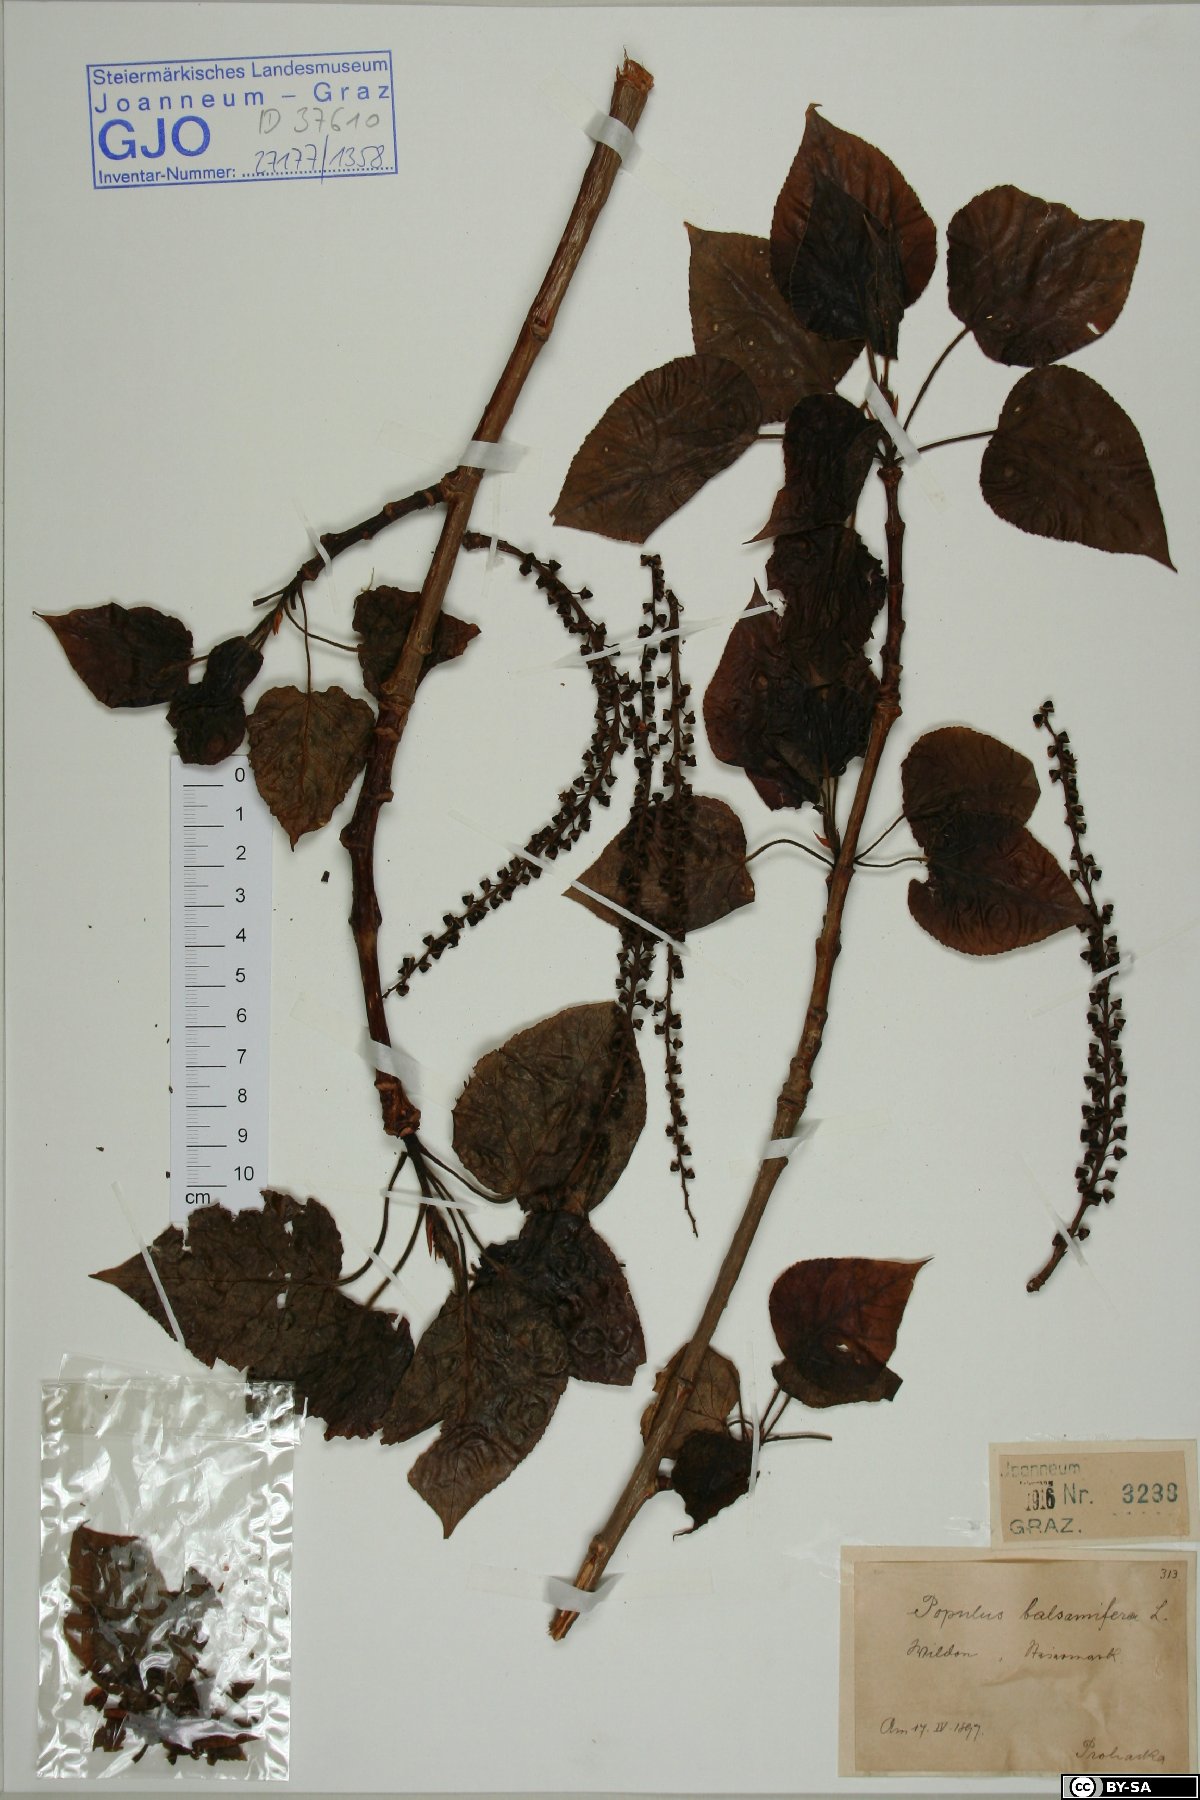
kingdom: Plantae
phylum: Tracheophyta
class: Magnoliopsida
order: Malpighiales
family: Salicaceae
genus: Populus
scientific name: Populus balsamifera
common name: Balsam poplar
